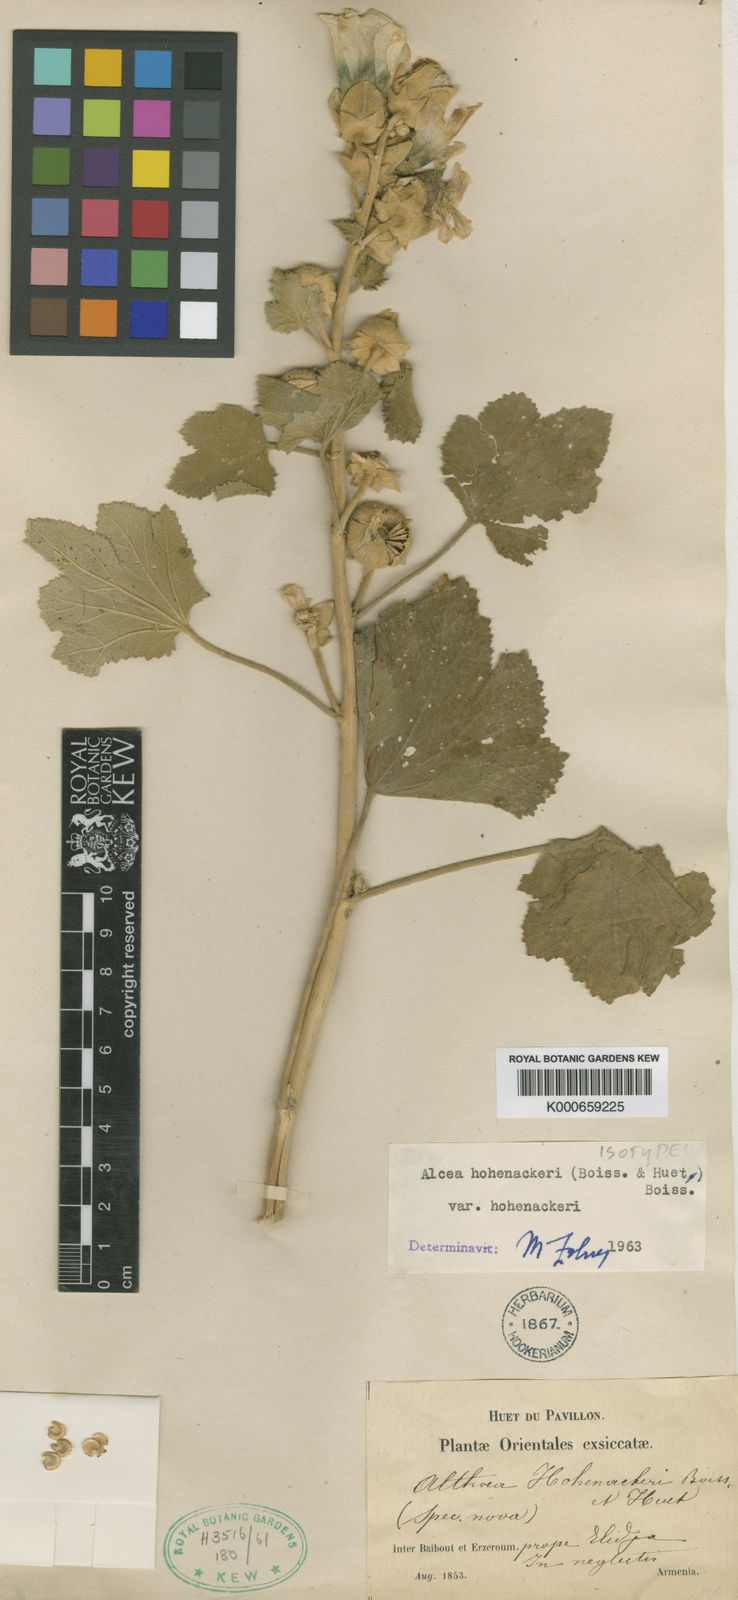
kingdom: Plantae
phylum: Tracheophyta
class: Magnoliopsida
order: Malvales
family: Malvaceae
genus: Alcea
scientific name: Alcea kurdica
